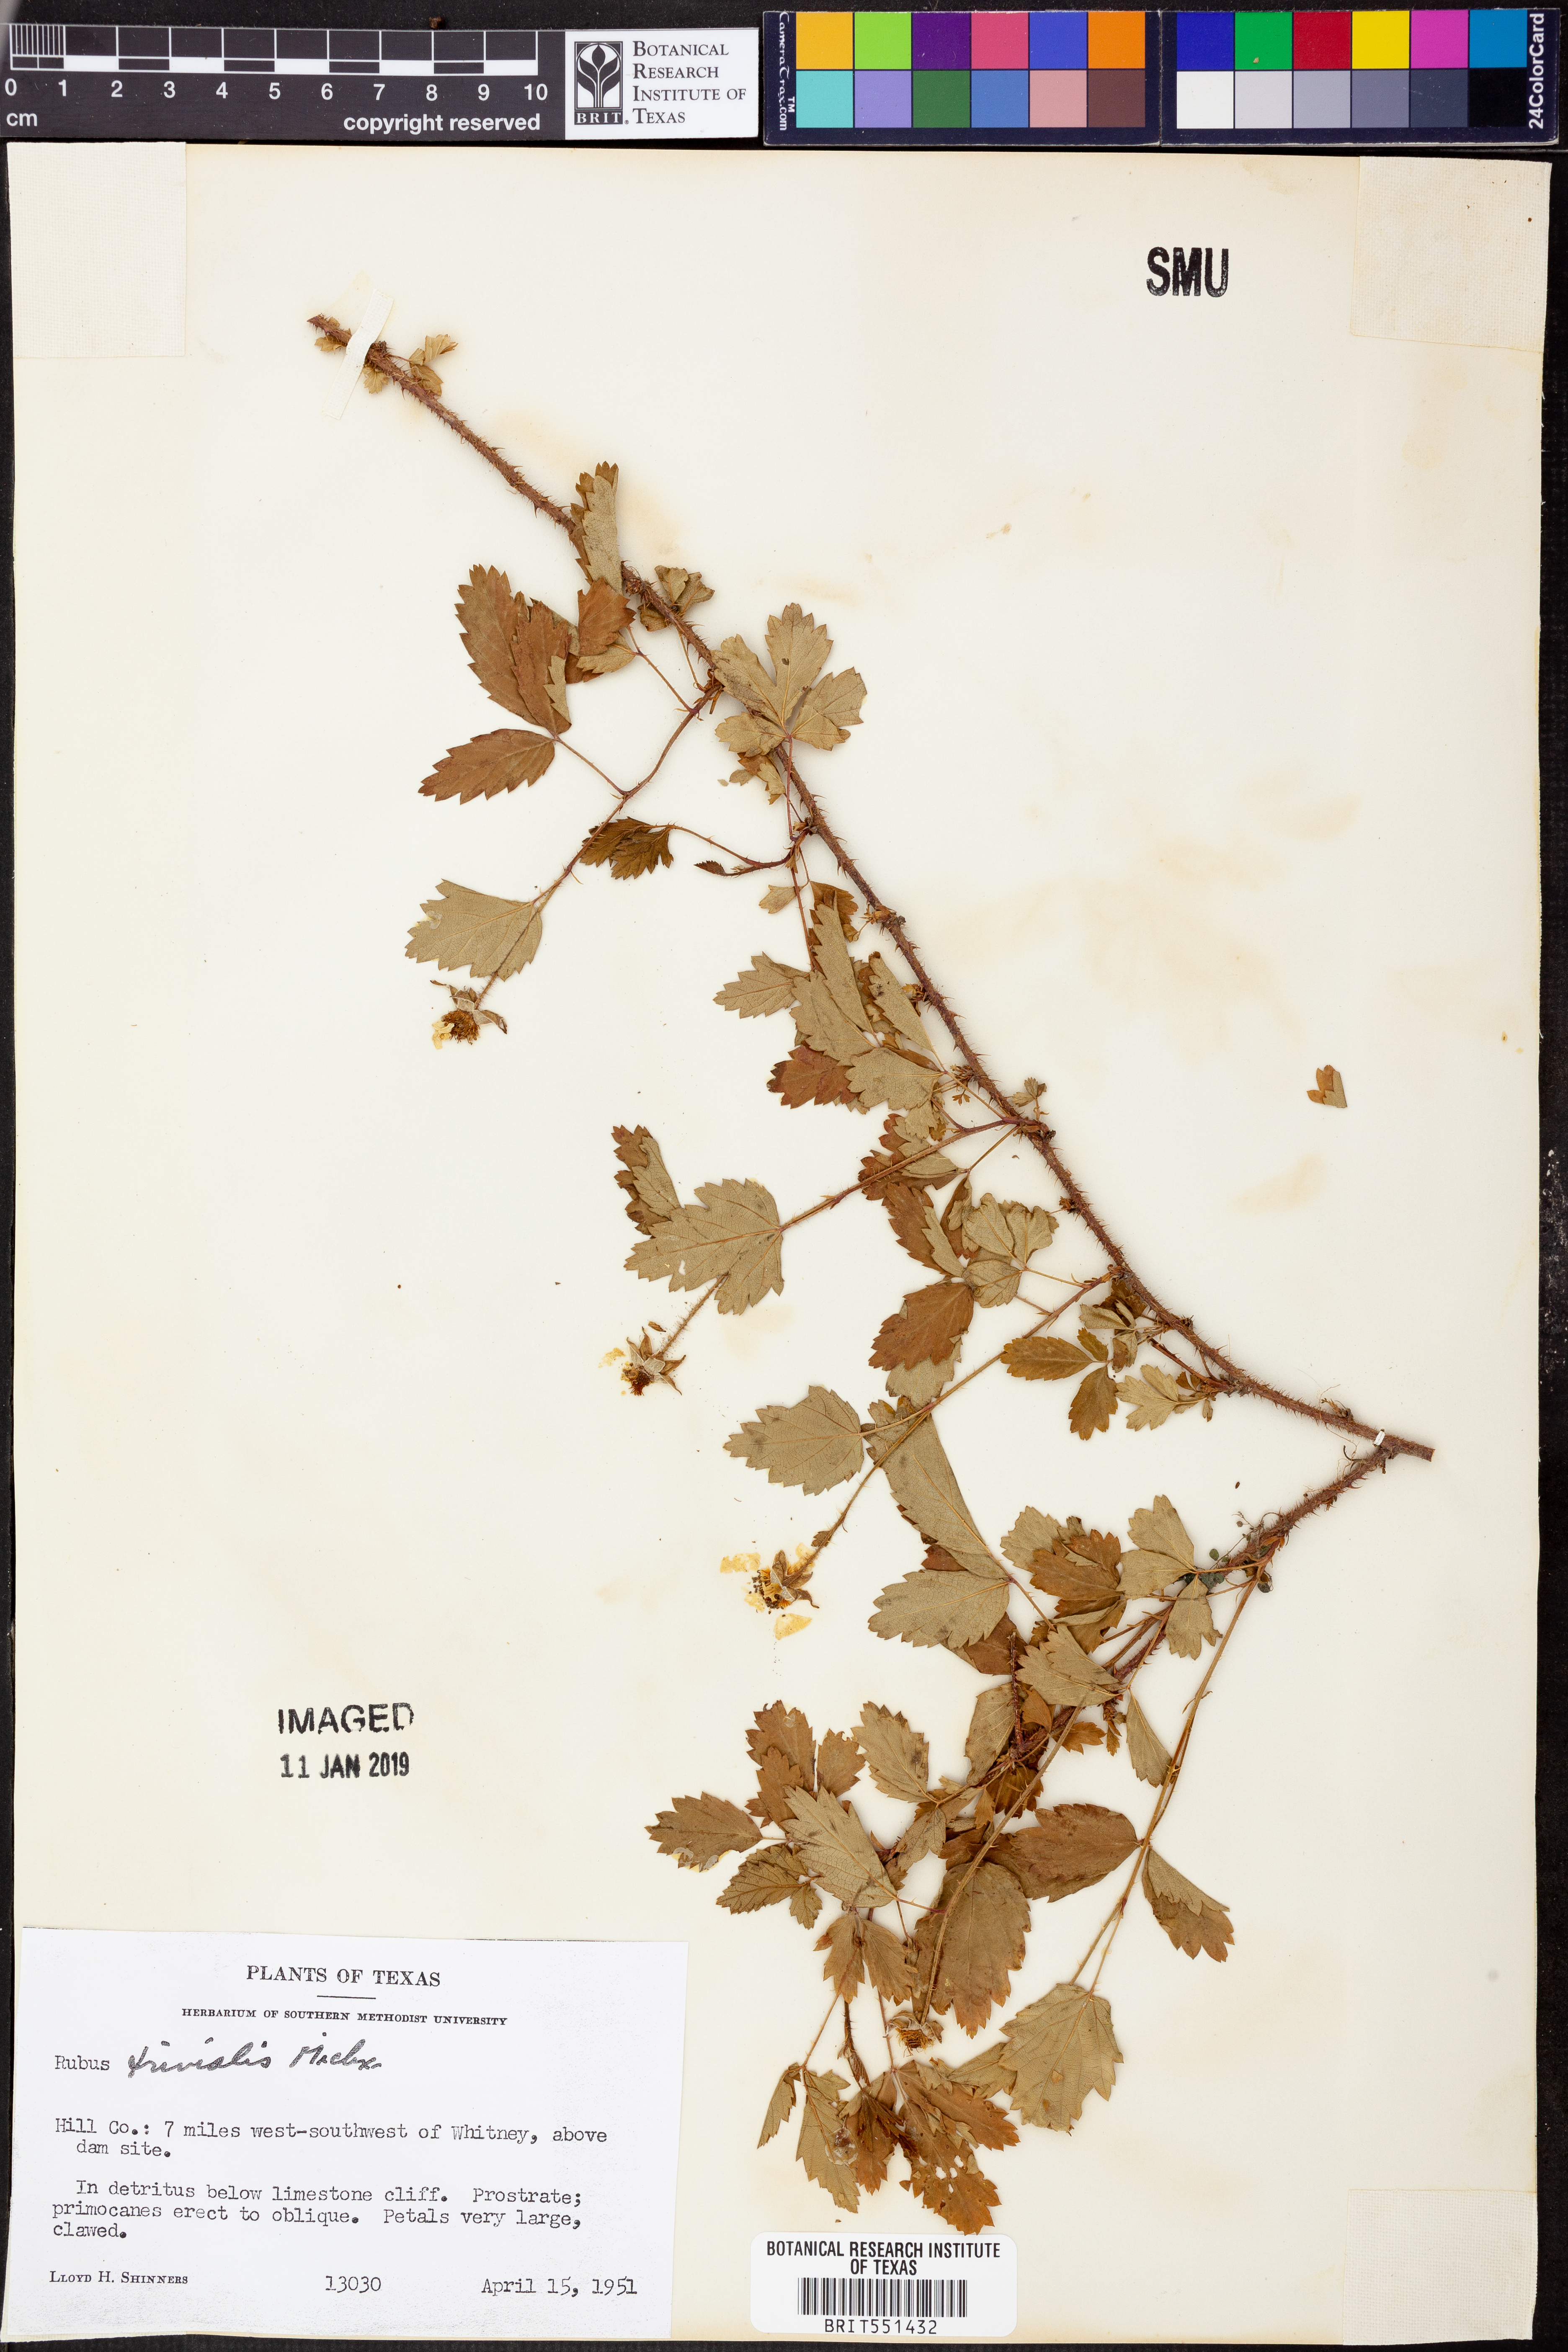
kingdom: Plantae
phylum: Tracheophyta
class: Magnoliopsida
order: Rosales
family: Rosaceae
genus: Rubus
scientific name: Rubus trivialis
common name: Southern dewberry
